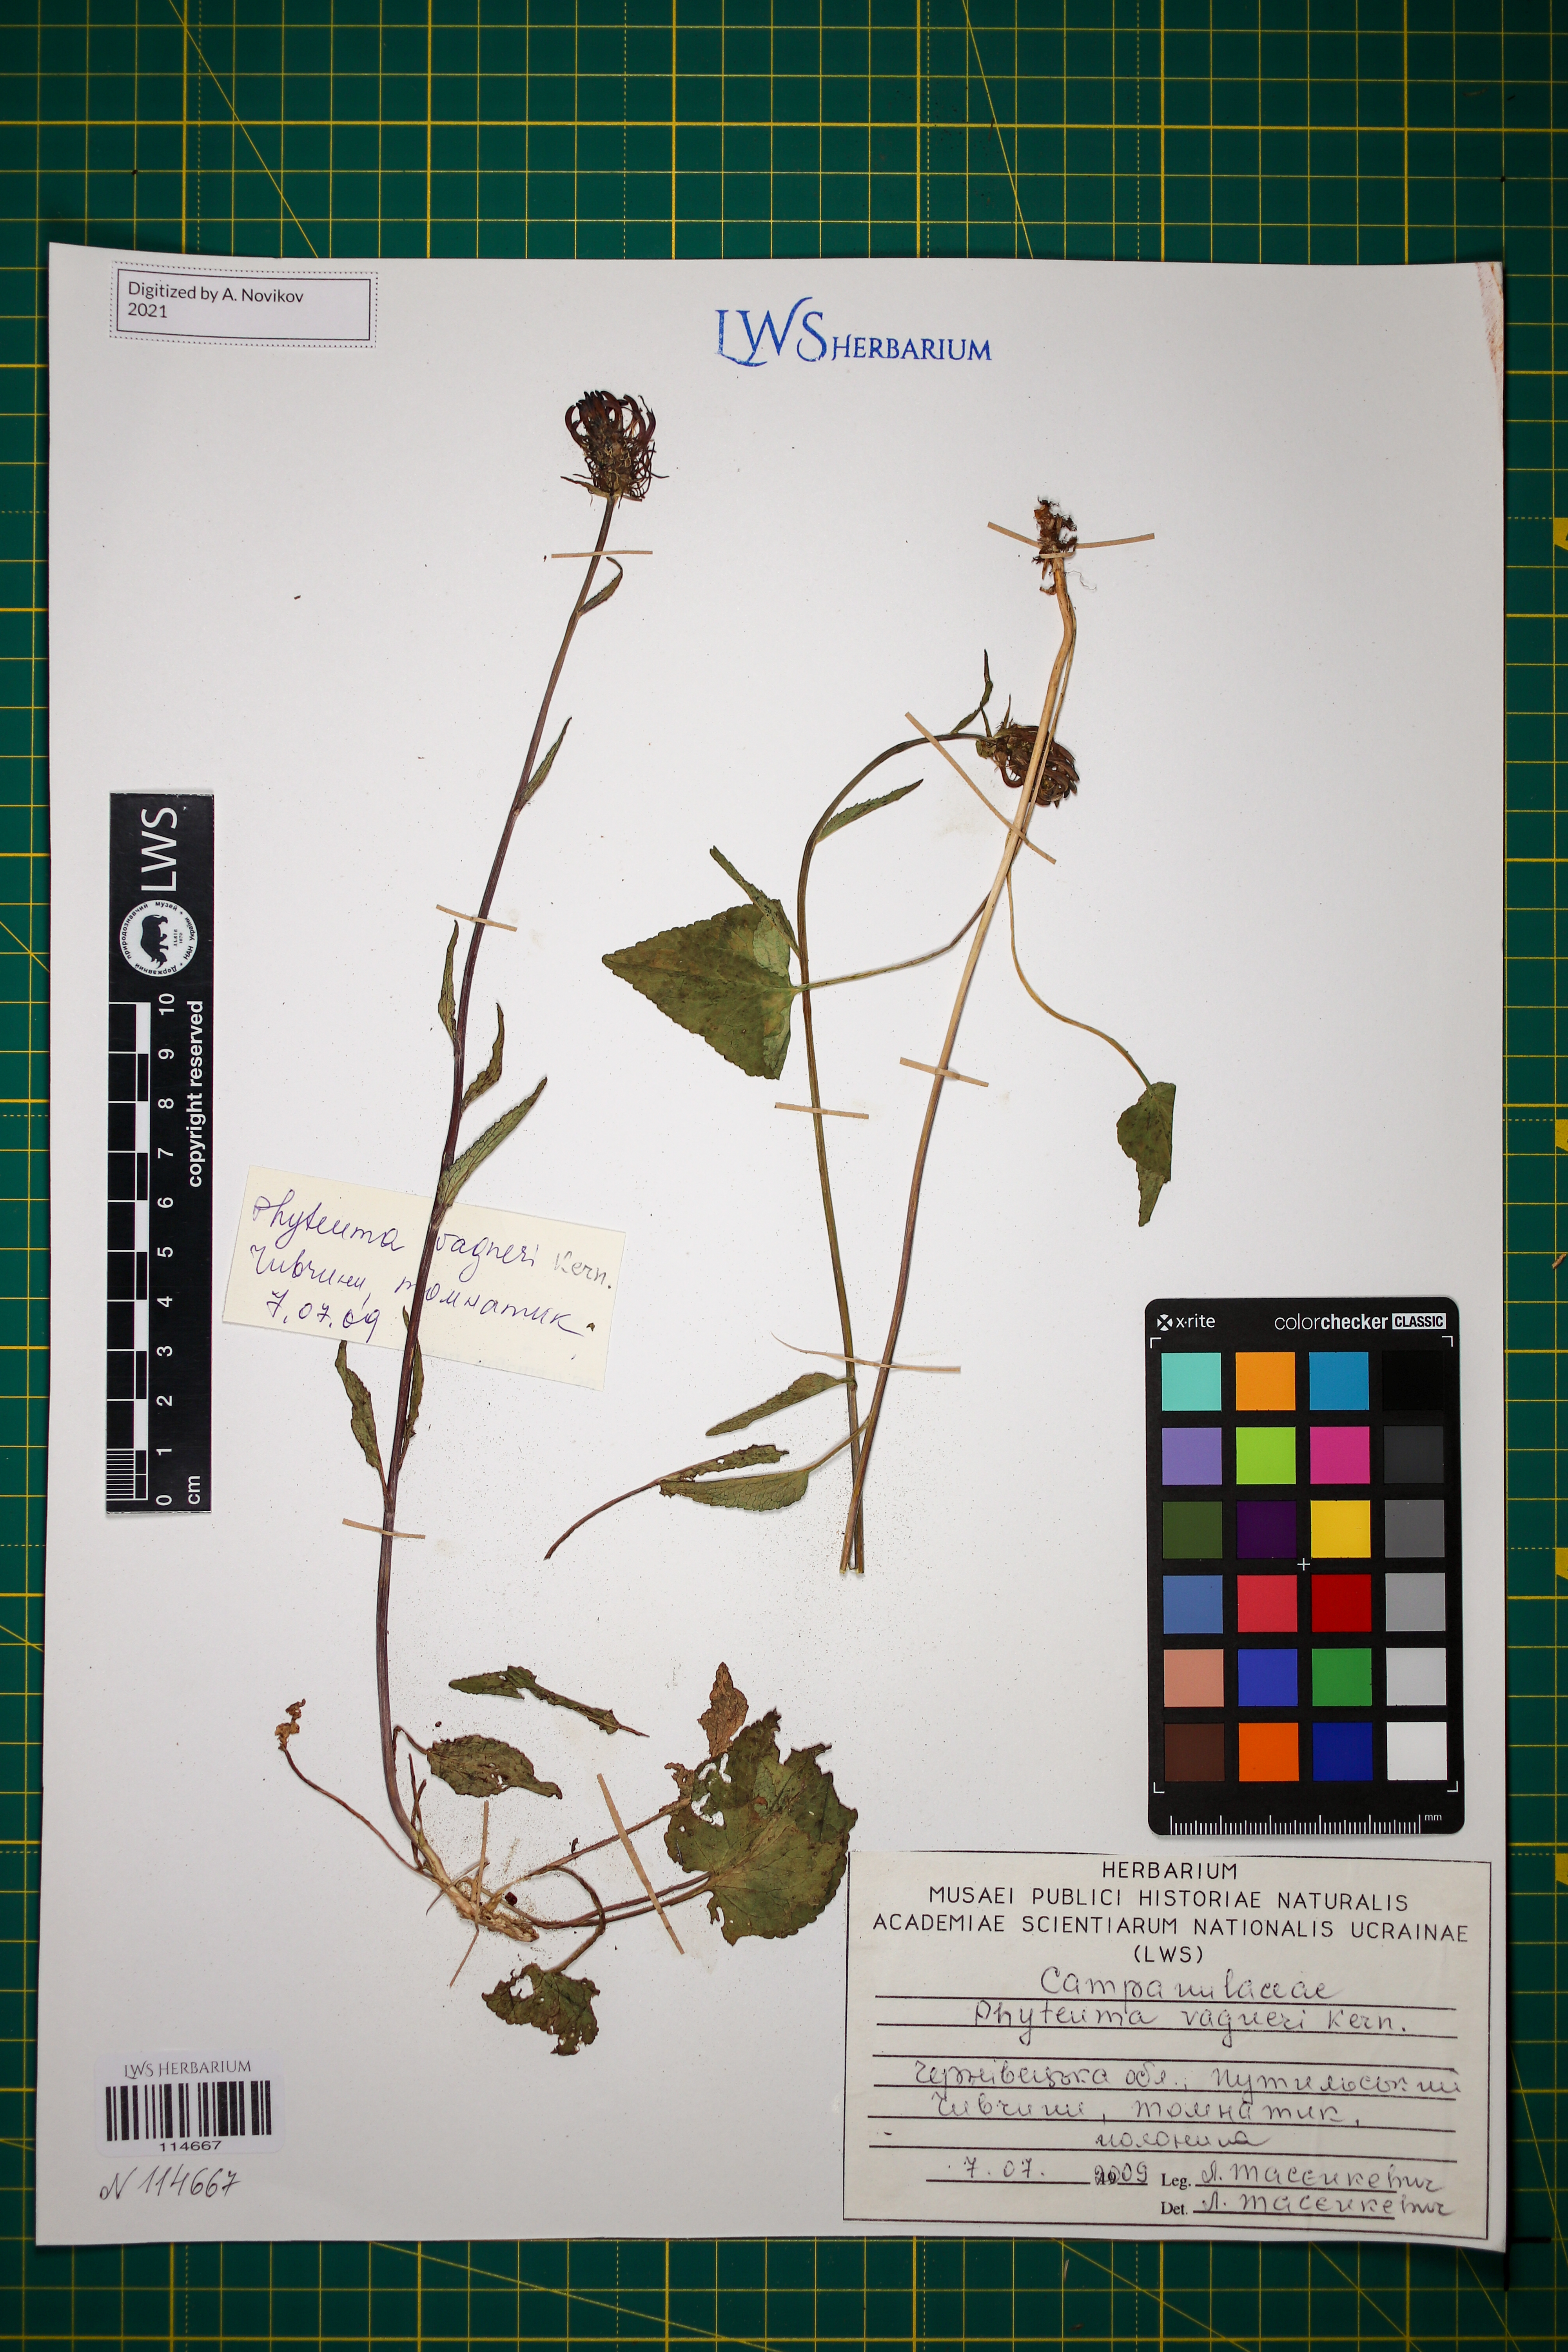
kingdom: Plantae
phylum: Tracheophyta
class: Magnoliopsida
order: Asterales
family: Campanulaceae
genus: Phyteuma
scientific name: Phyteuma vagneri
